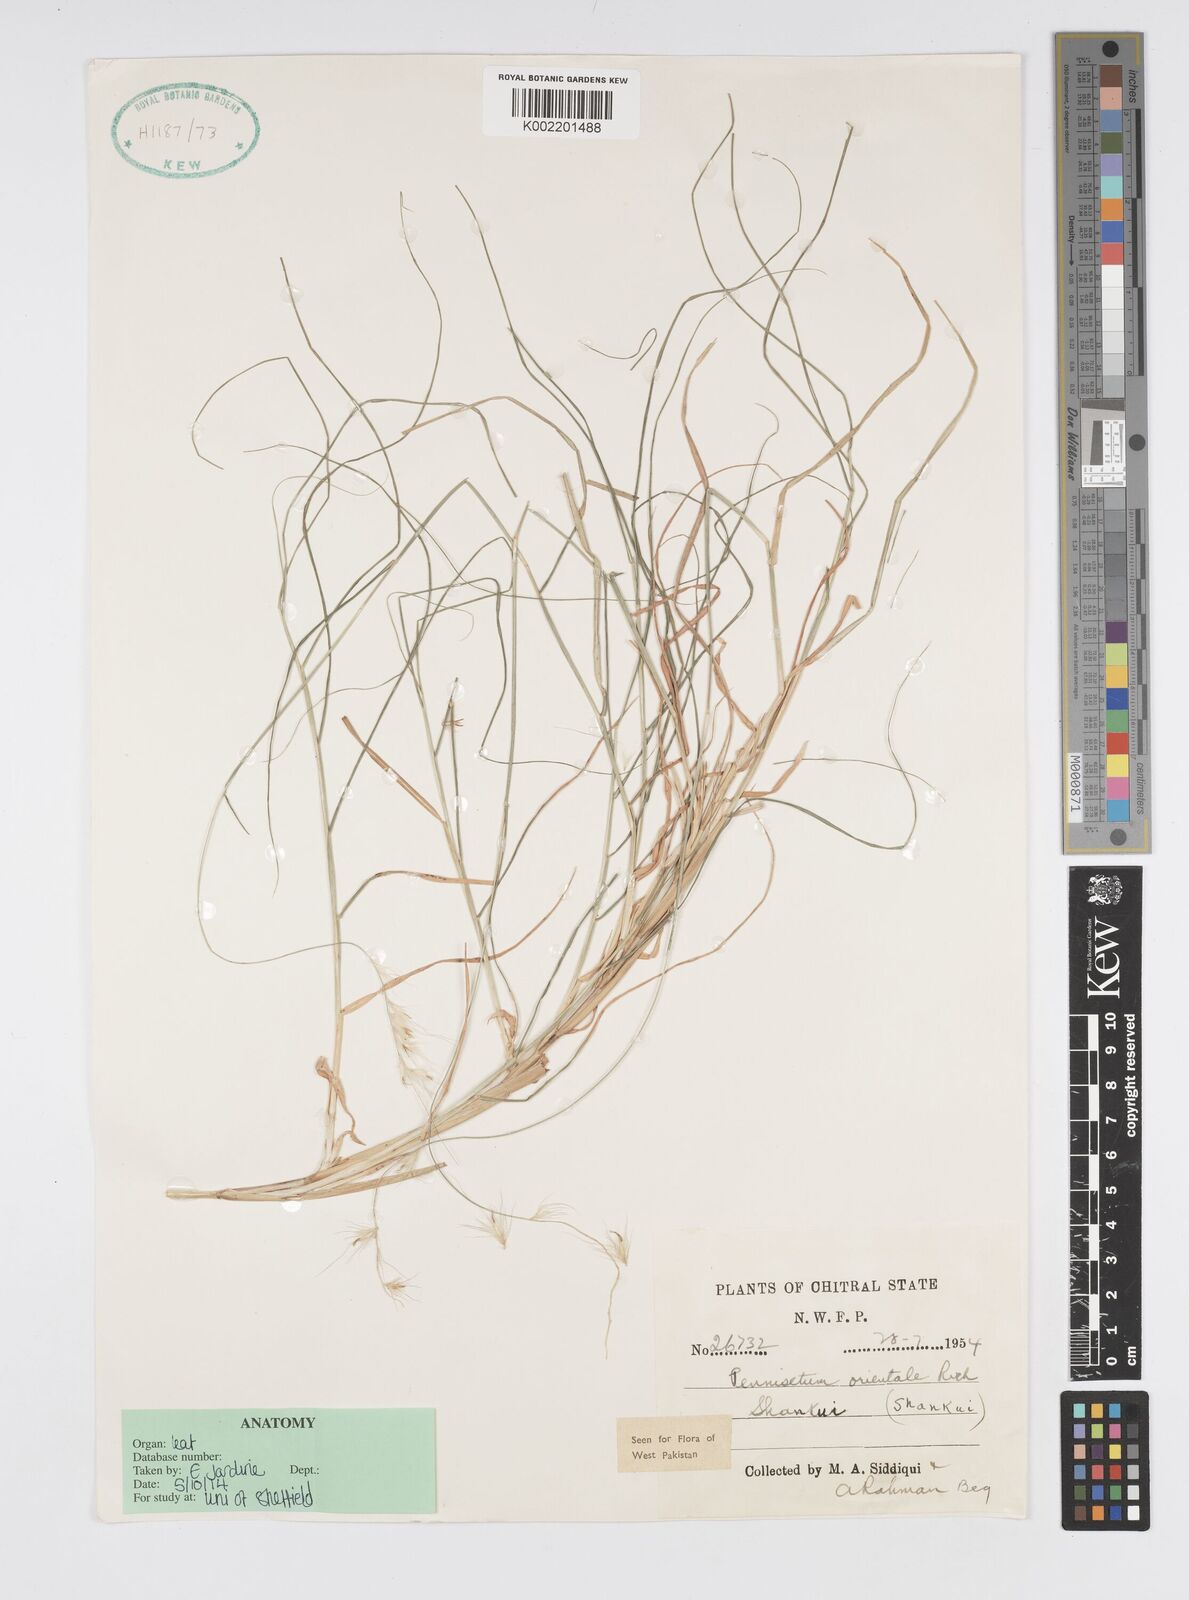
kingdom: Plantae
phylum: Tracheophyta
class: Liliopsida
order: Poales
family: Poaceae
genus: Cenchrus
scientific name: Cenchrus orientalis
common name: Oriental fountain grass
